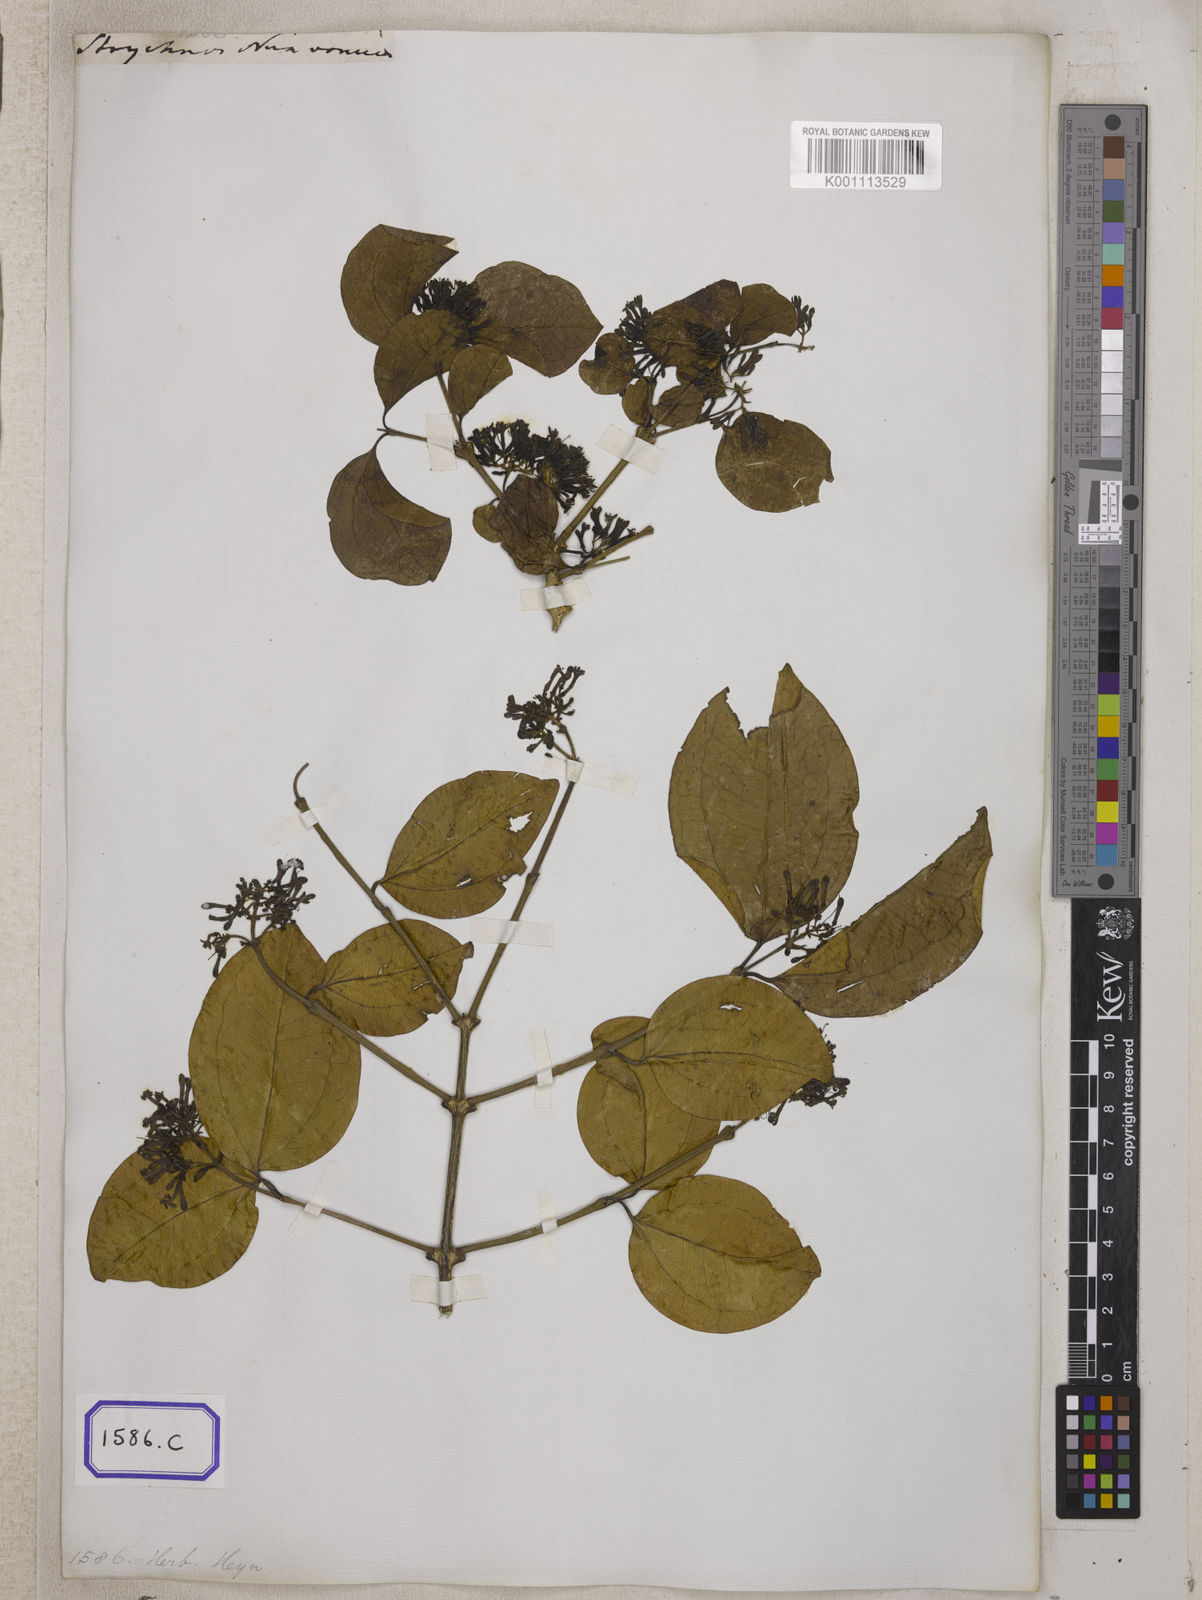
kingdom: Plantae
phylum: Tracheophyta
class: Magnoliopsida
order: Gentianales
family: Loganiaceae
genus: Strychnos
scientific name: Strychnos nux-vomica
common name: Strychninetree
